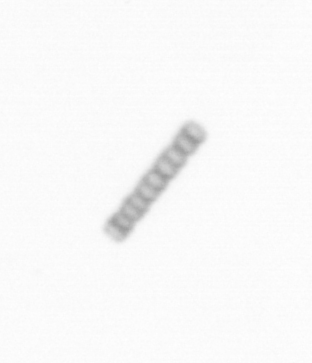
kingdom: Chromista
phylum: Ochrophyta
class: Bacillariophyceae
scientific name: Bacillariophyceae
